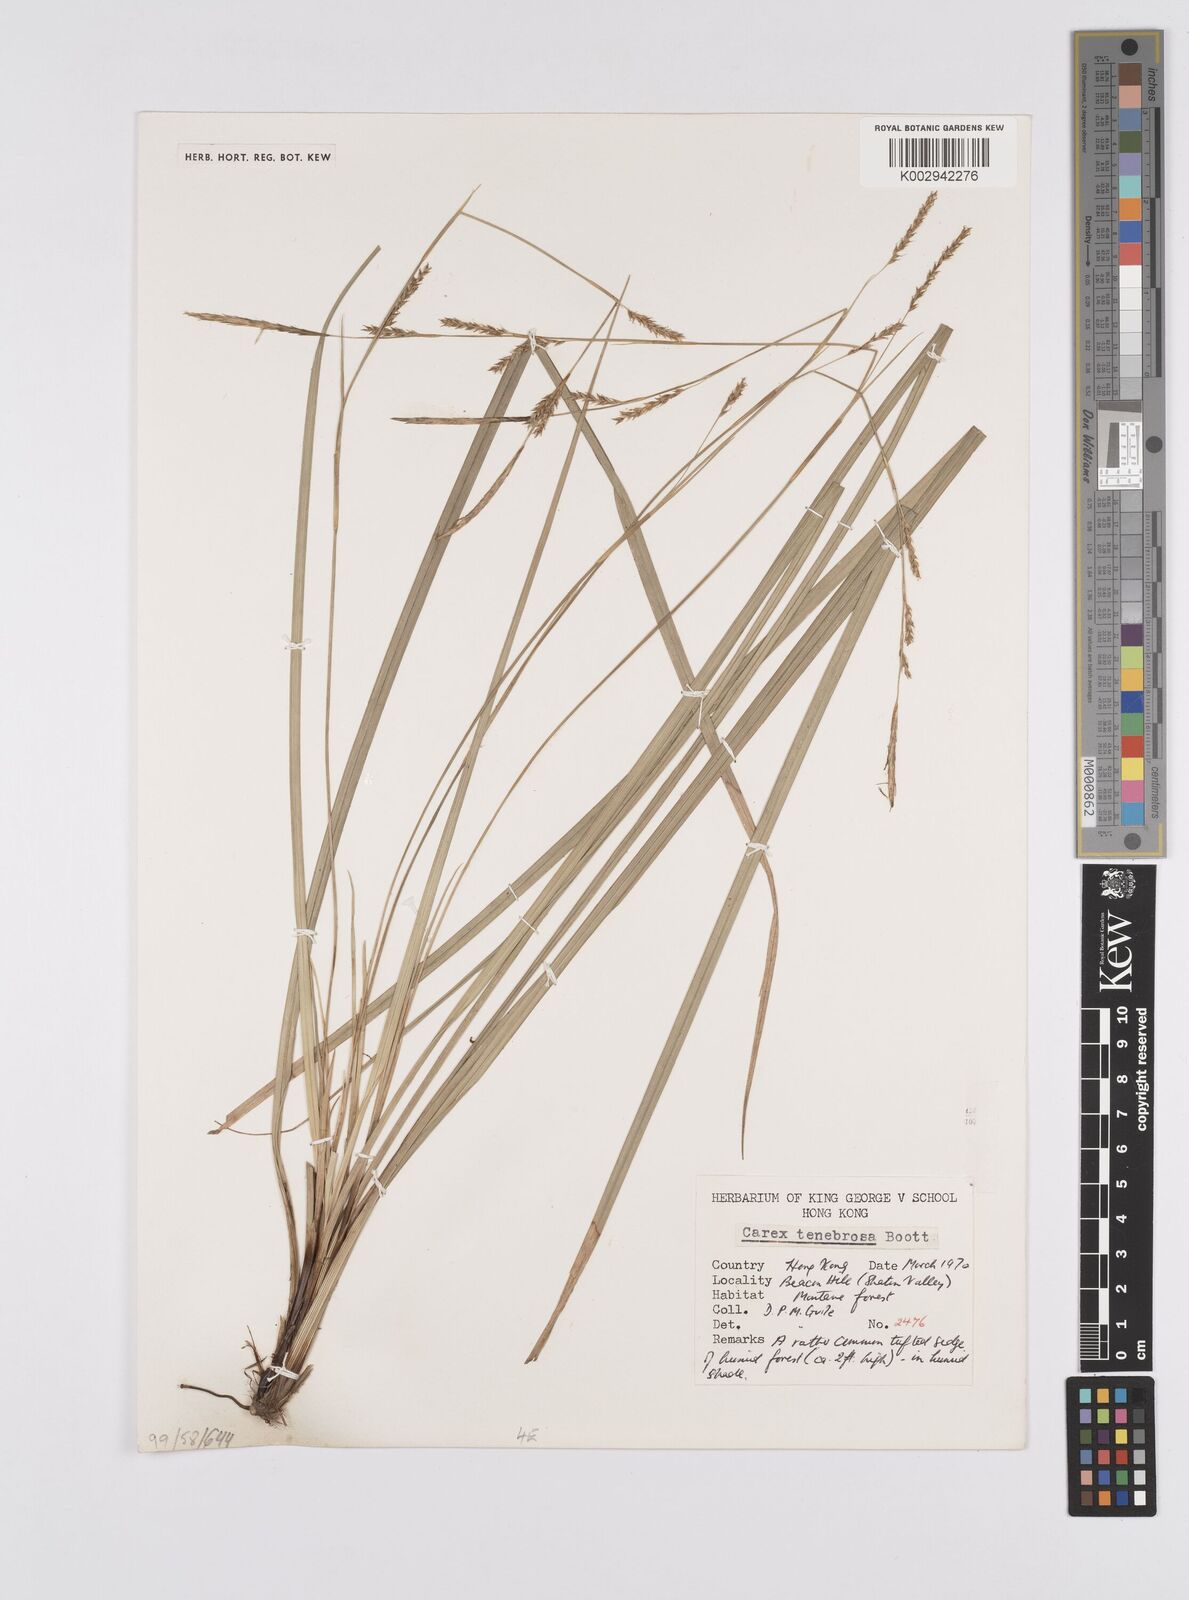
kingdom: Plantae
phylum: Tracheophyta
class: Liliopsida
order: Poales
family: Cyperaceae
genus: Carex
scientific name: Carex tenebrosa
